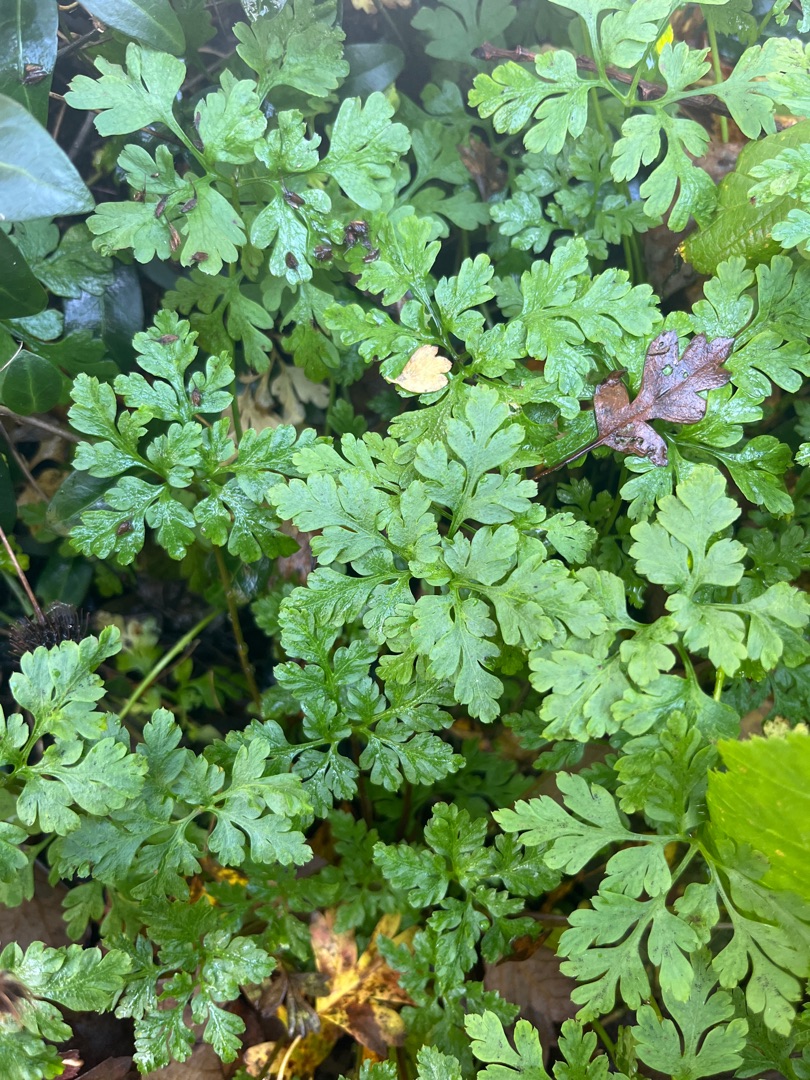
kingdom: Plantae
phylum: Tracheophyta
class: Magnoliopsida
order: Geraniales
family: Geraniaceae
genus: Geranium
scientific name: Geranium robertianum
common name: Stinkende storkenæb
